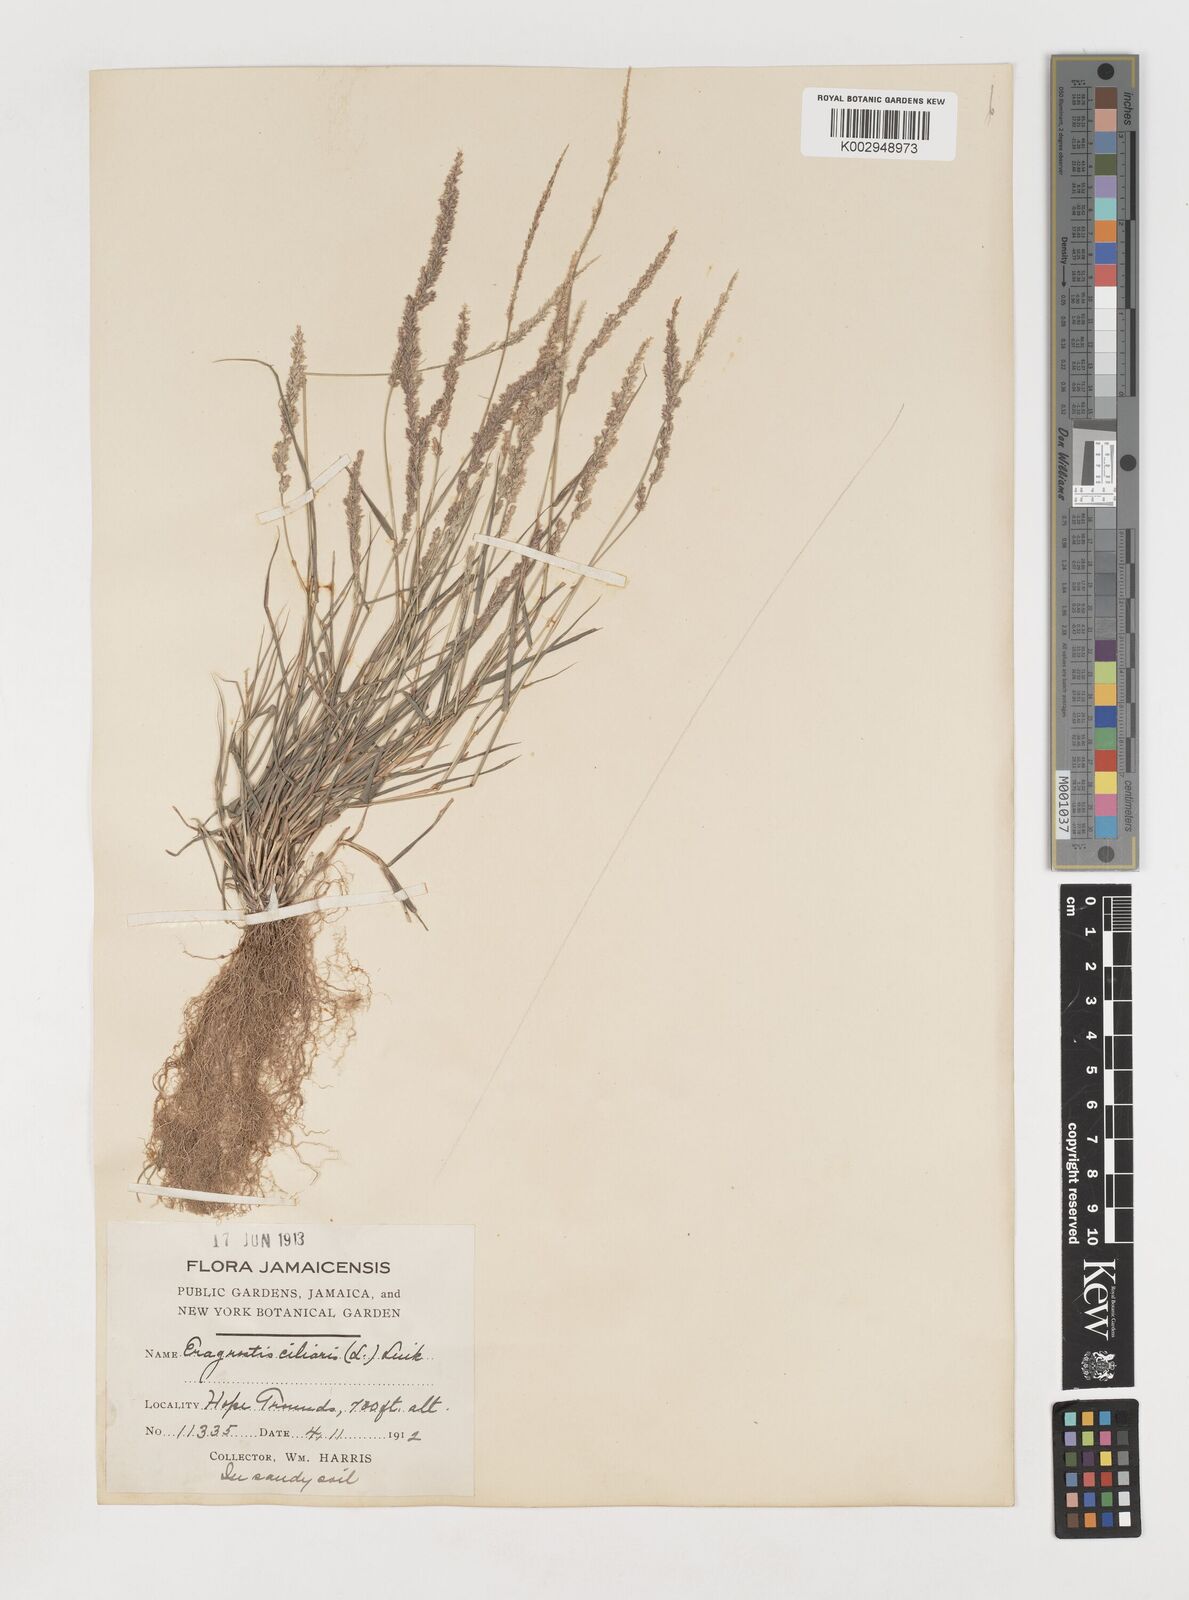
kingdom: Plantae
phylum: Tracheophyta
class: Liliopsida
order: Poales
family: Poaceae
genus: Eragrostis
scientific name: Eragrostis ciliaris
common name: Gophertail lovegrass
